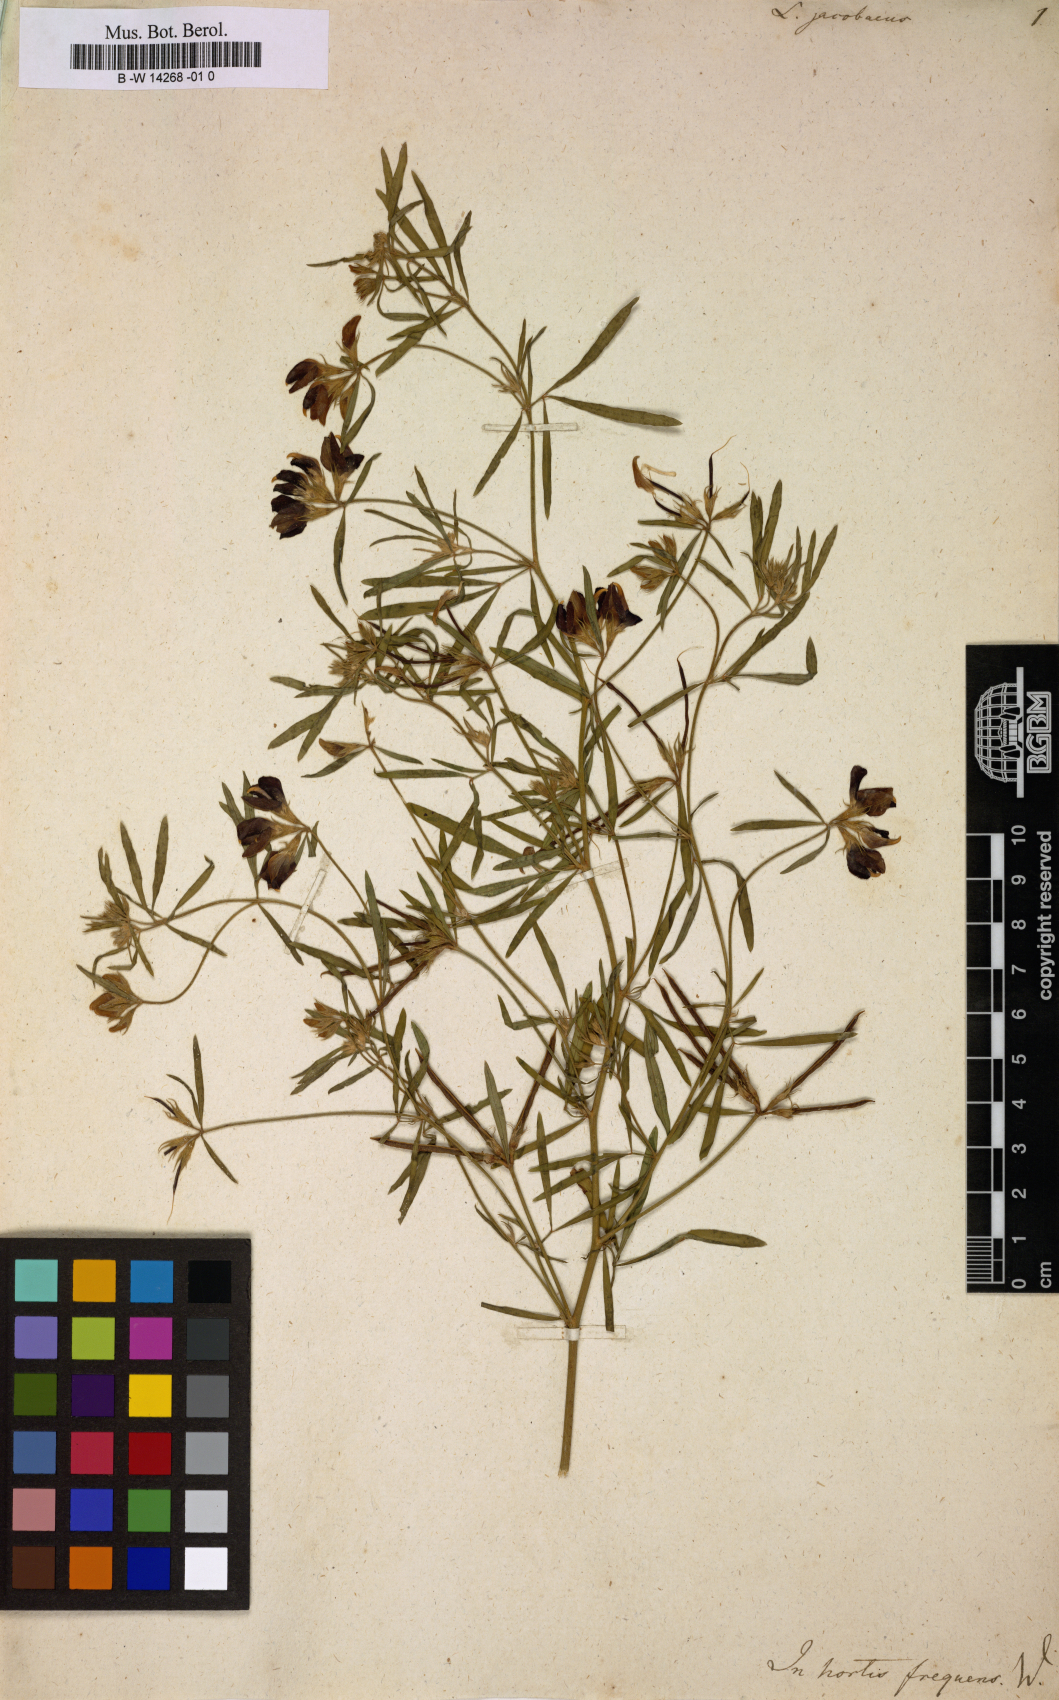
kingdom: Plantae
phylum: Tracheophyta
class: Magnoliopsida
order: Fabales
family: Fabaceae
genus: Lotus
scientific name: Lotus jacobaeus
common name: St. james's trefoil
